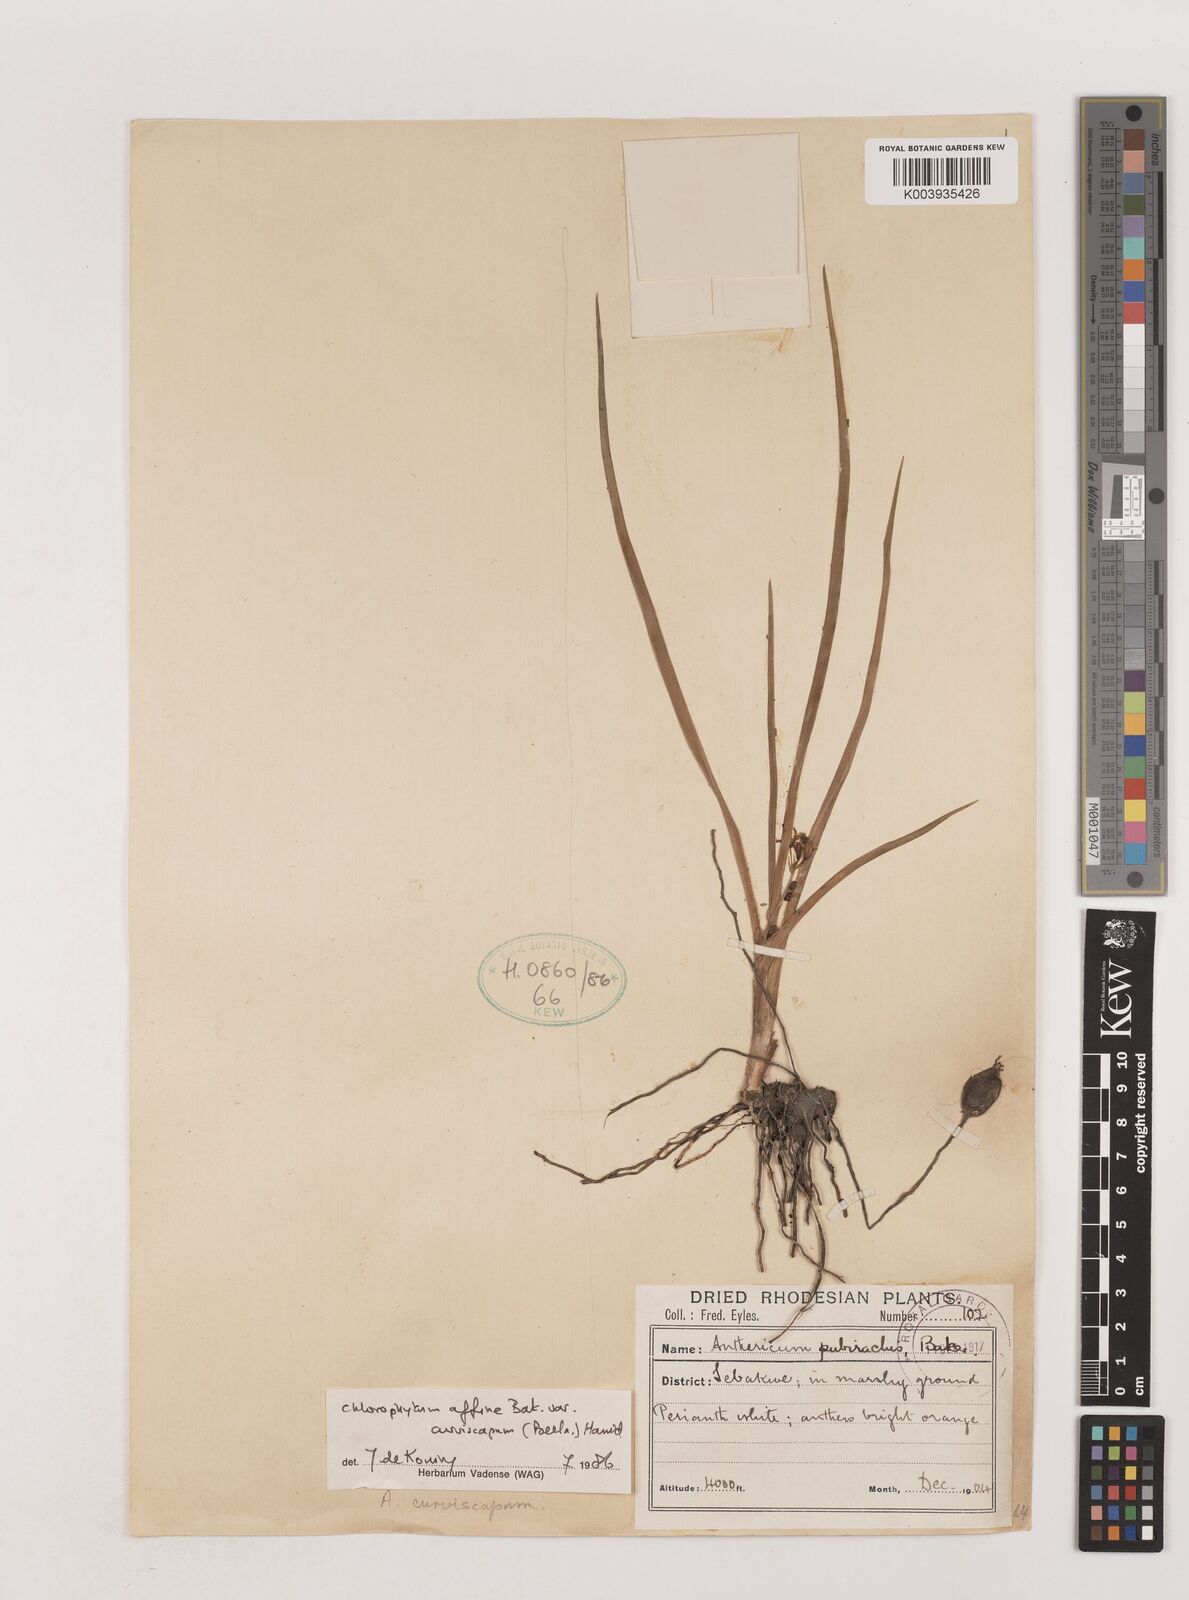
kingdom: Plantae
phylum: Tracheophyta
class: Liliopsida
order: Asparagales
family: Asparagaceae
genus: Chlorophytum
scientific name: Chlorophytum tordense
